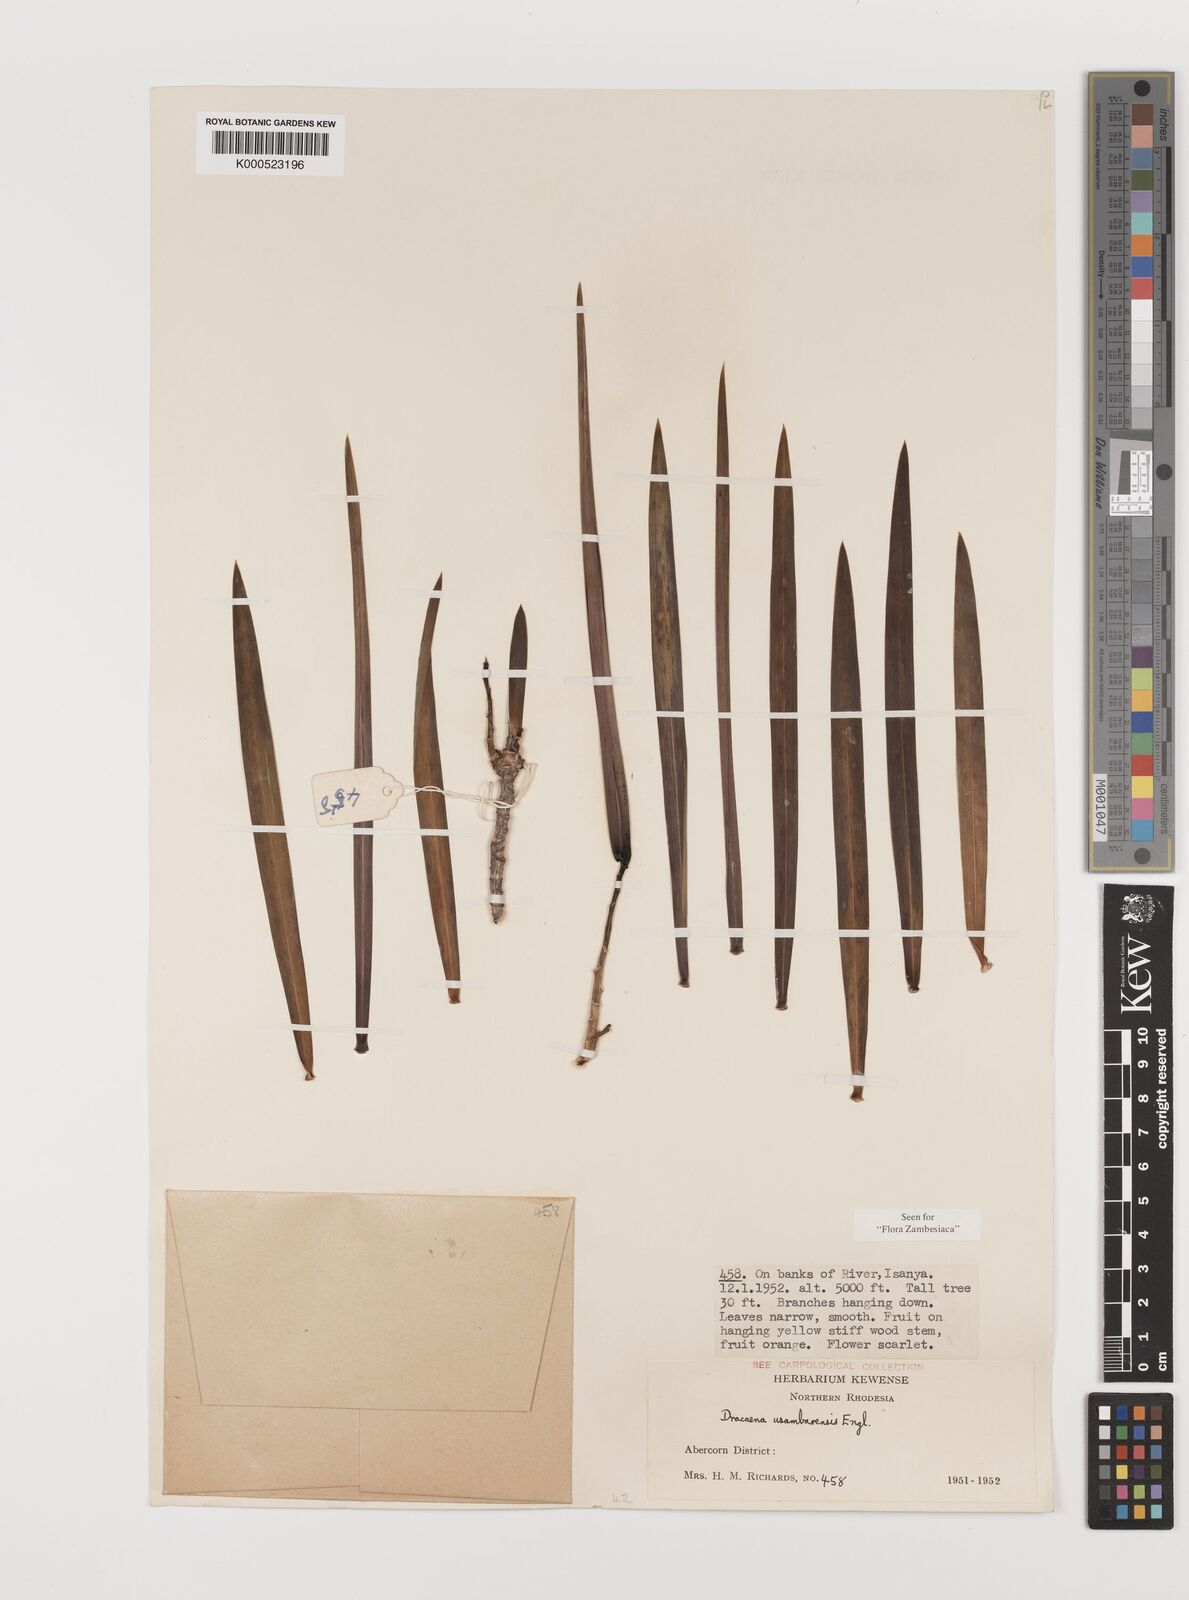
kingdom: Plantae
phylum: Tracheophyta
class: Liliopsida
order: Asparagales
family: Asparagaceae
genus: Dracaena
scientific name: Dracaena usambarensis
